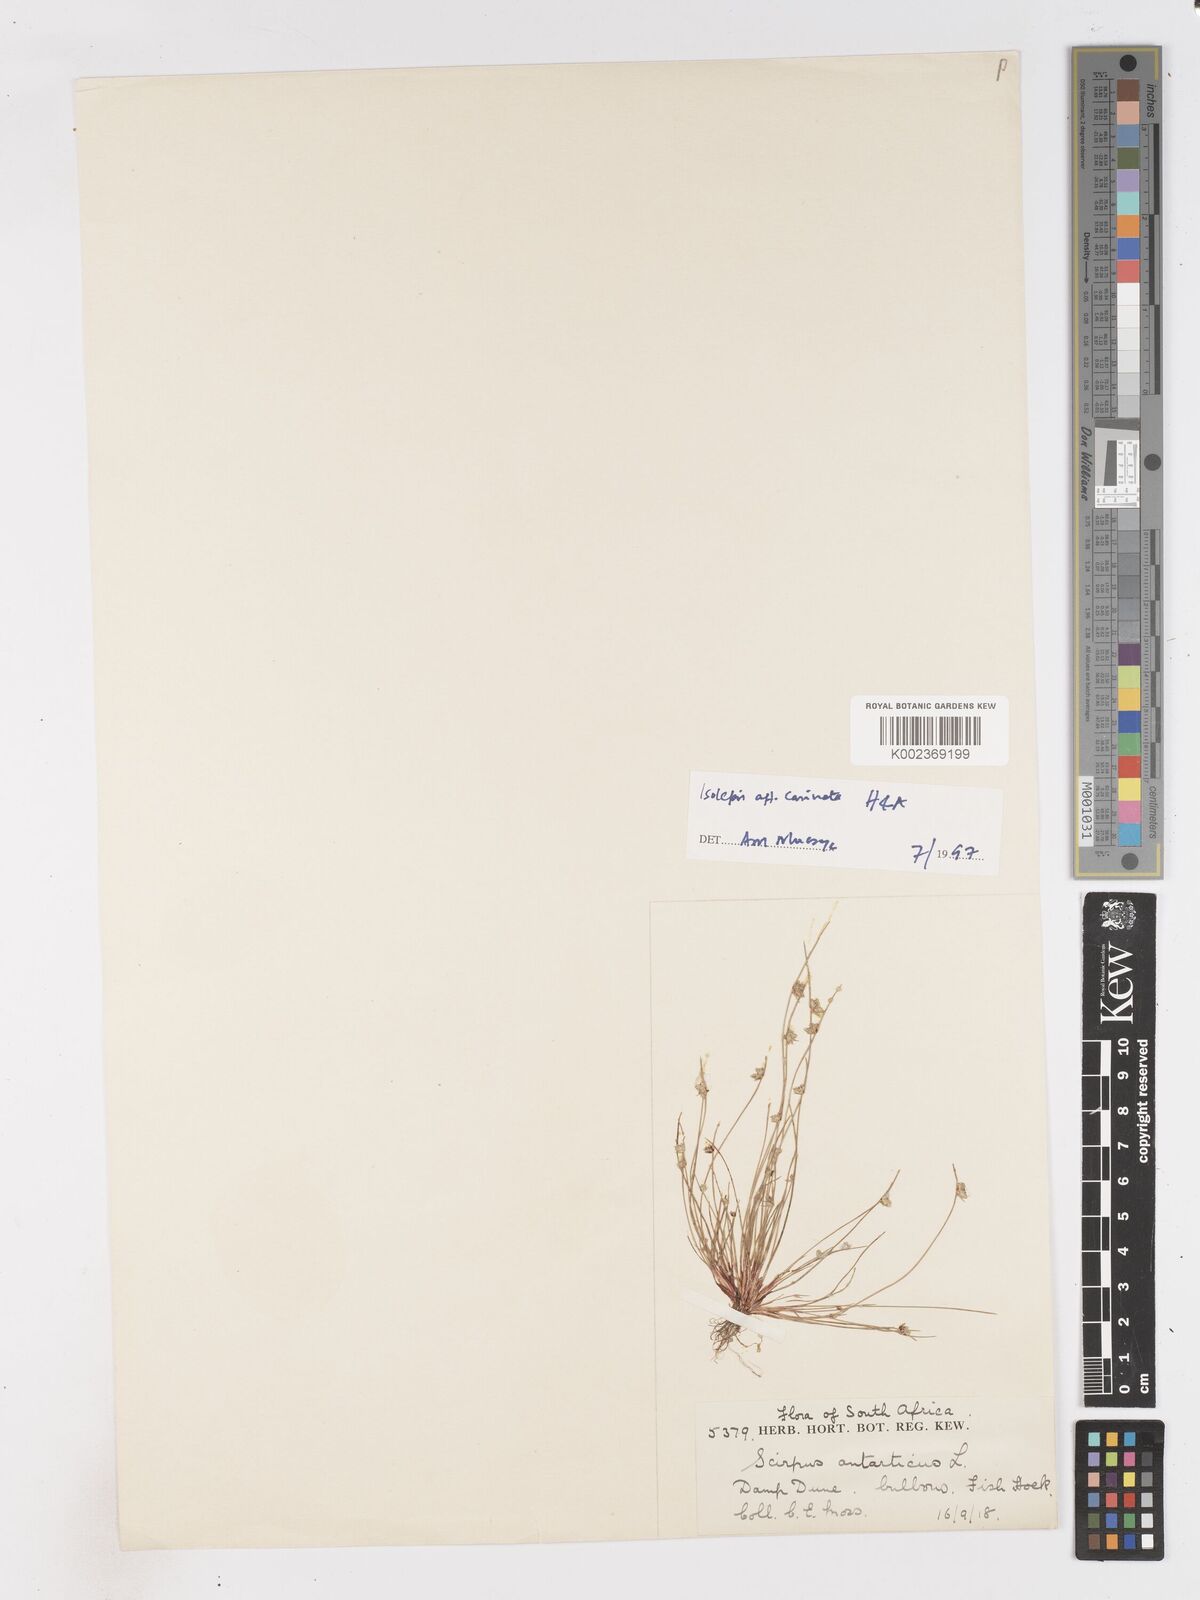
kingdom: Plantae
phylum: Tracheophyta
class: Liliopsida
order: Poales
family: Cyperaceae
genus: Isolepis
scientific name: Isolepis carinata
